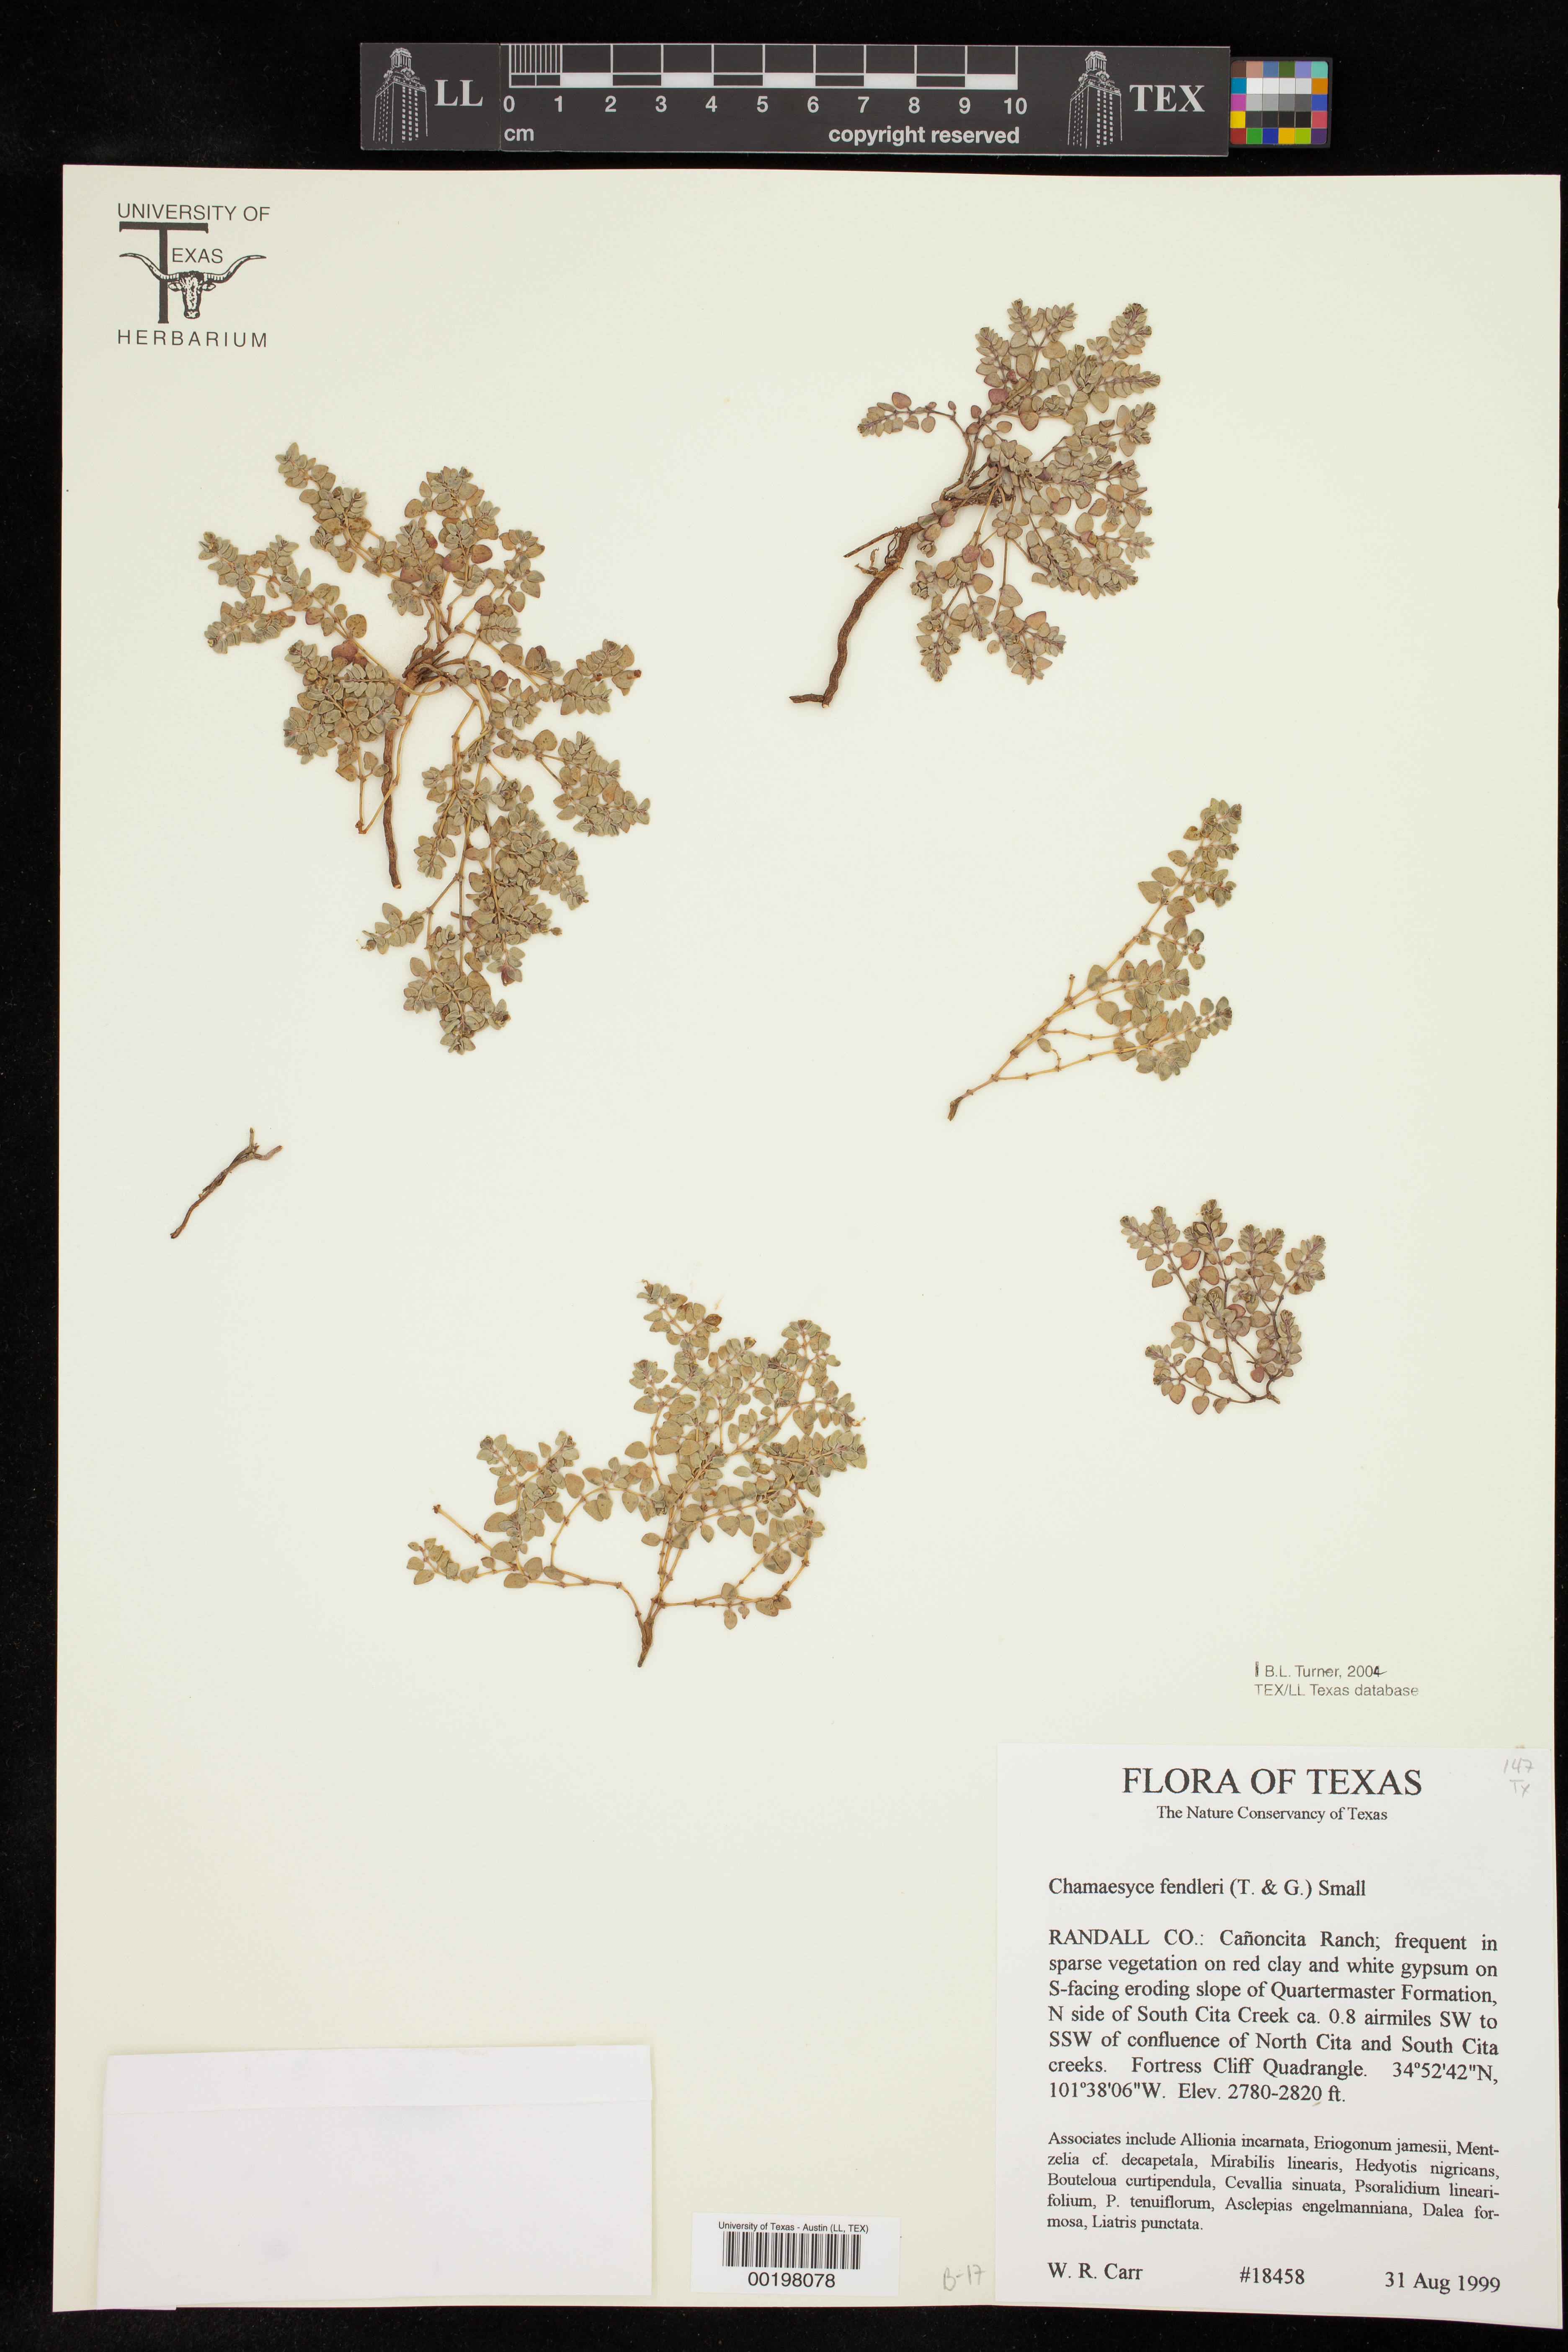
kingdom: Plantae
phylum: Tracheophyta
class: Magnoliopsida
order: Malpighiales
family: Euphorbiaceae
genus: Euphorbia
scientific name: Euphorbia fendleri
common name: Fendler's euphorbia
